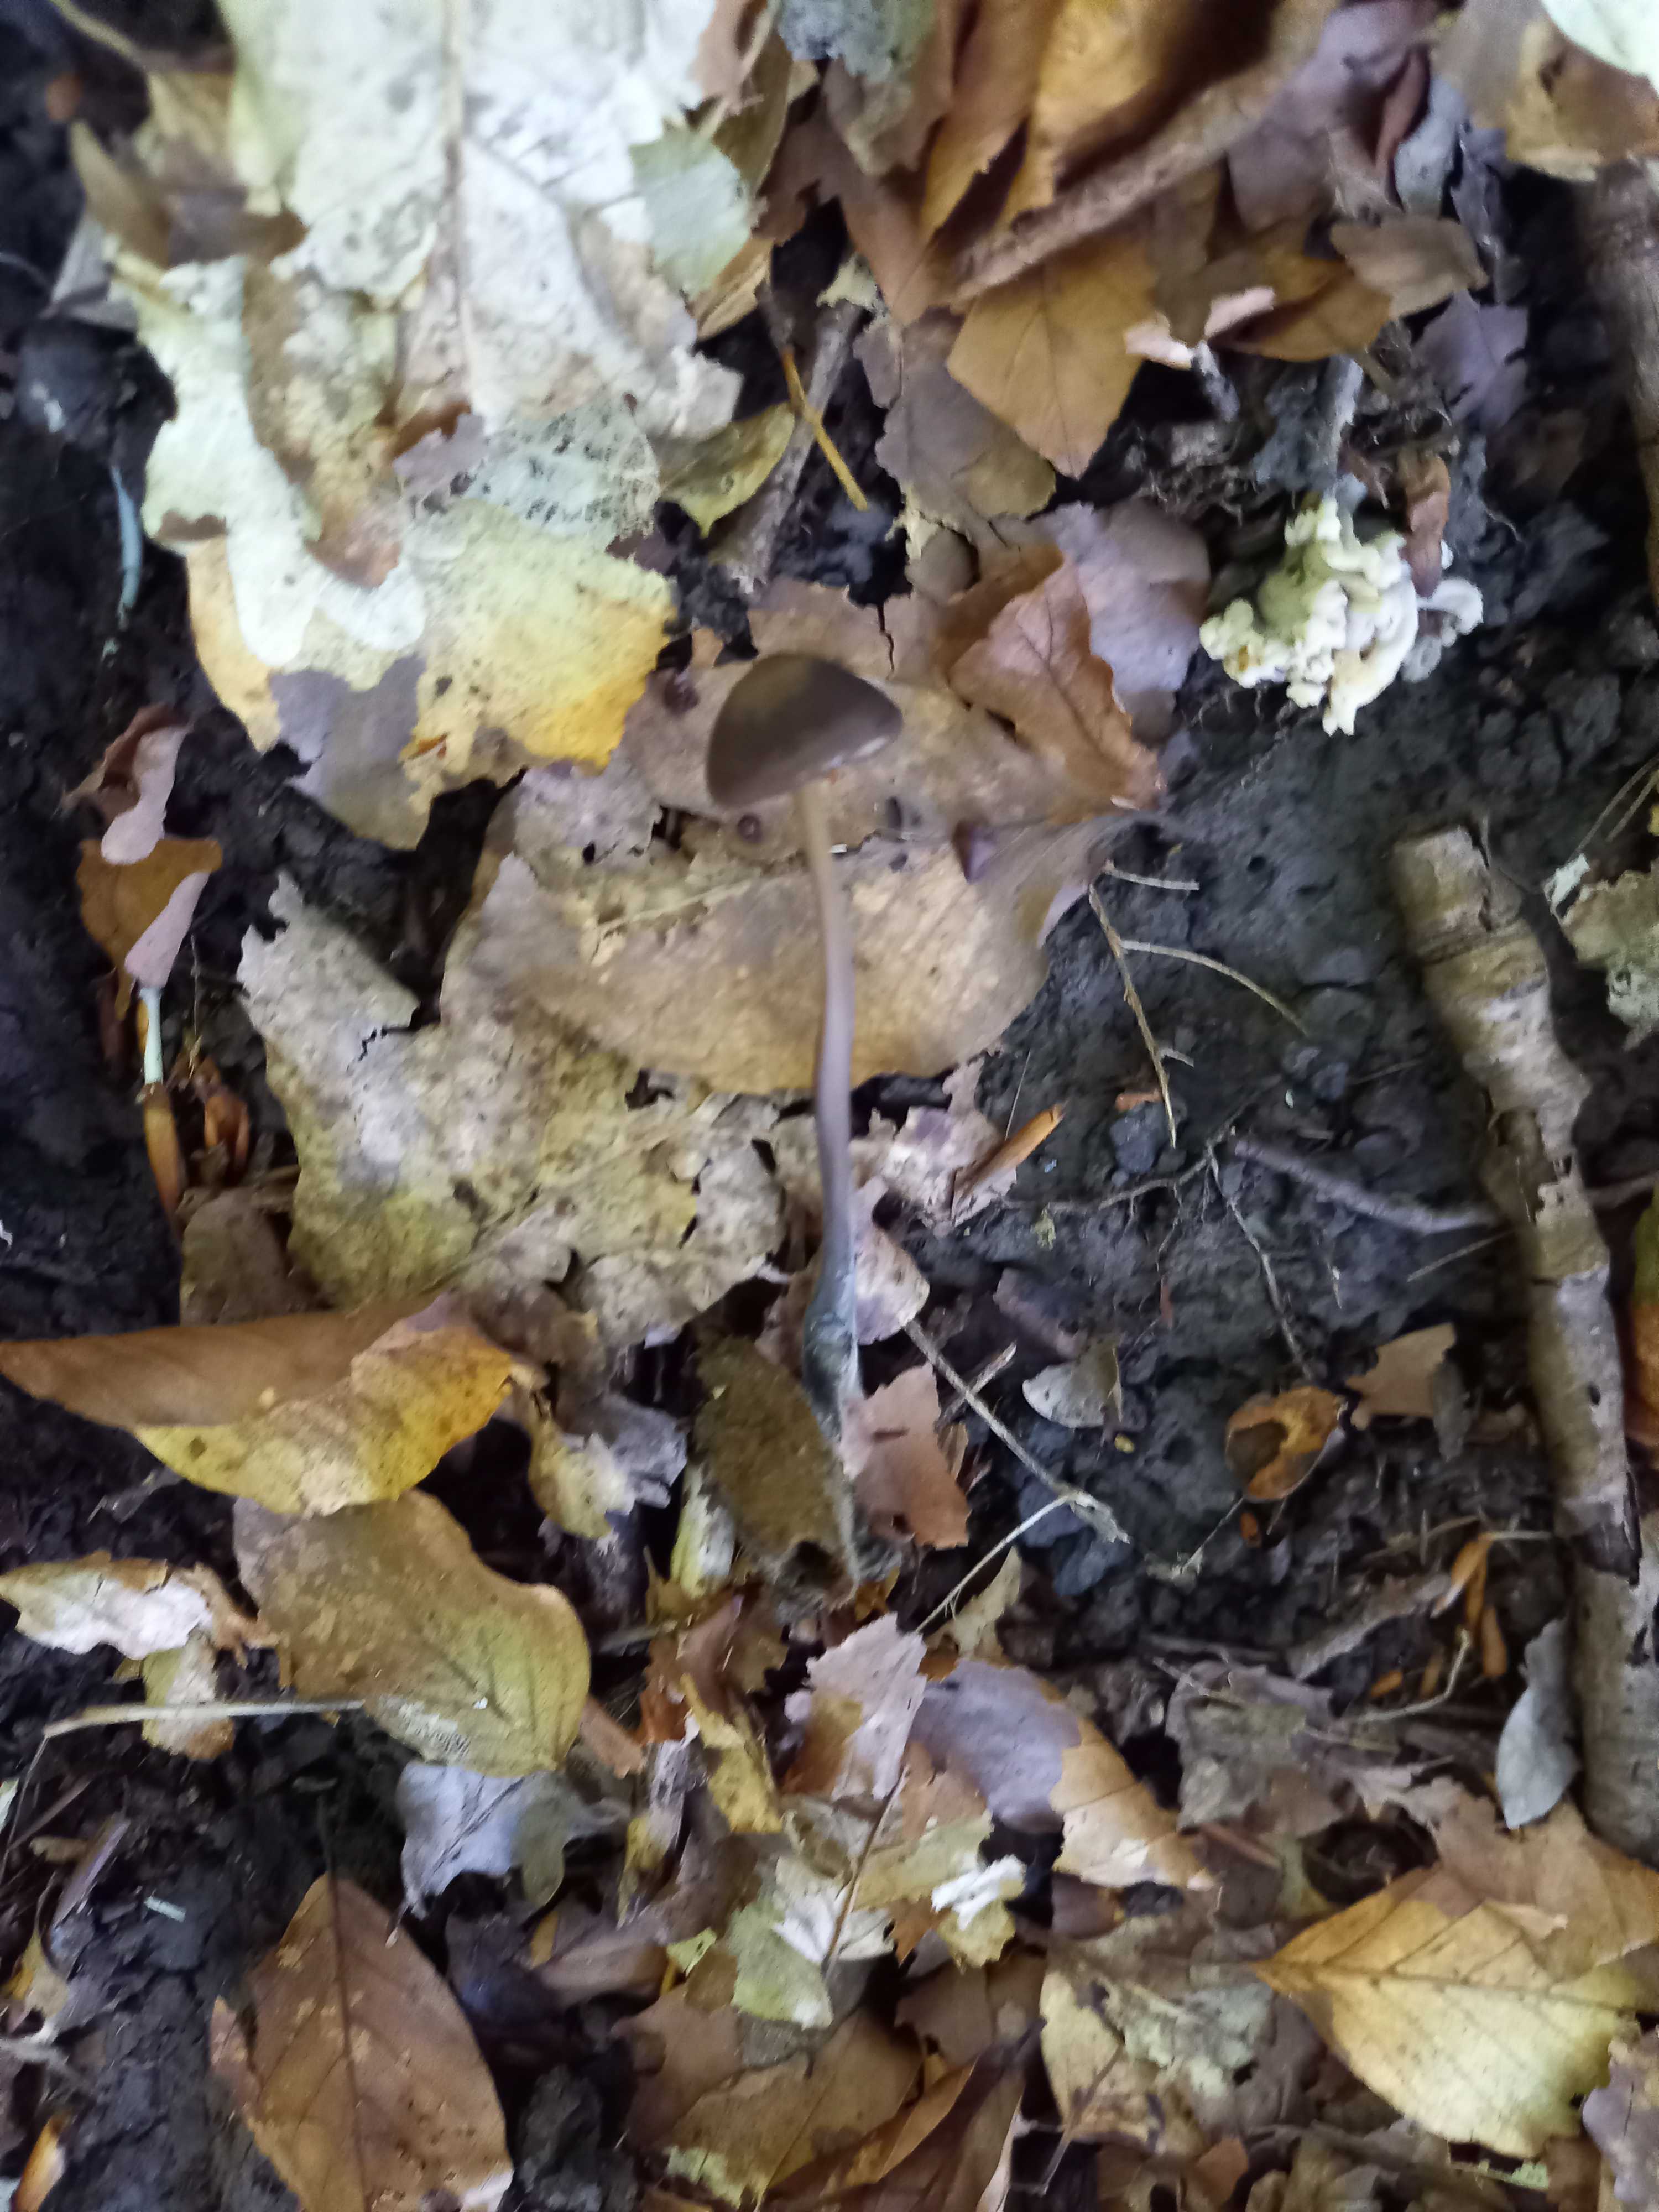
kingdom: Fungi
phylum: Basidiomycota
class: Agaricomycetes
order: Agaricales
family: Omphalotaceae
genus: Mycetinis
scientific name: Mycetinis alliaceus
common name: stor løghat
